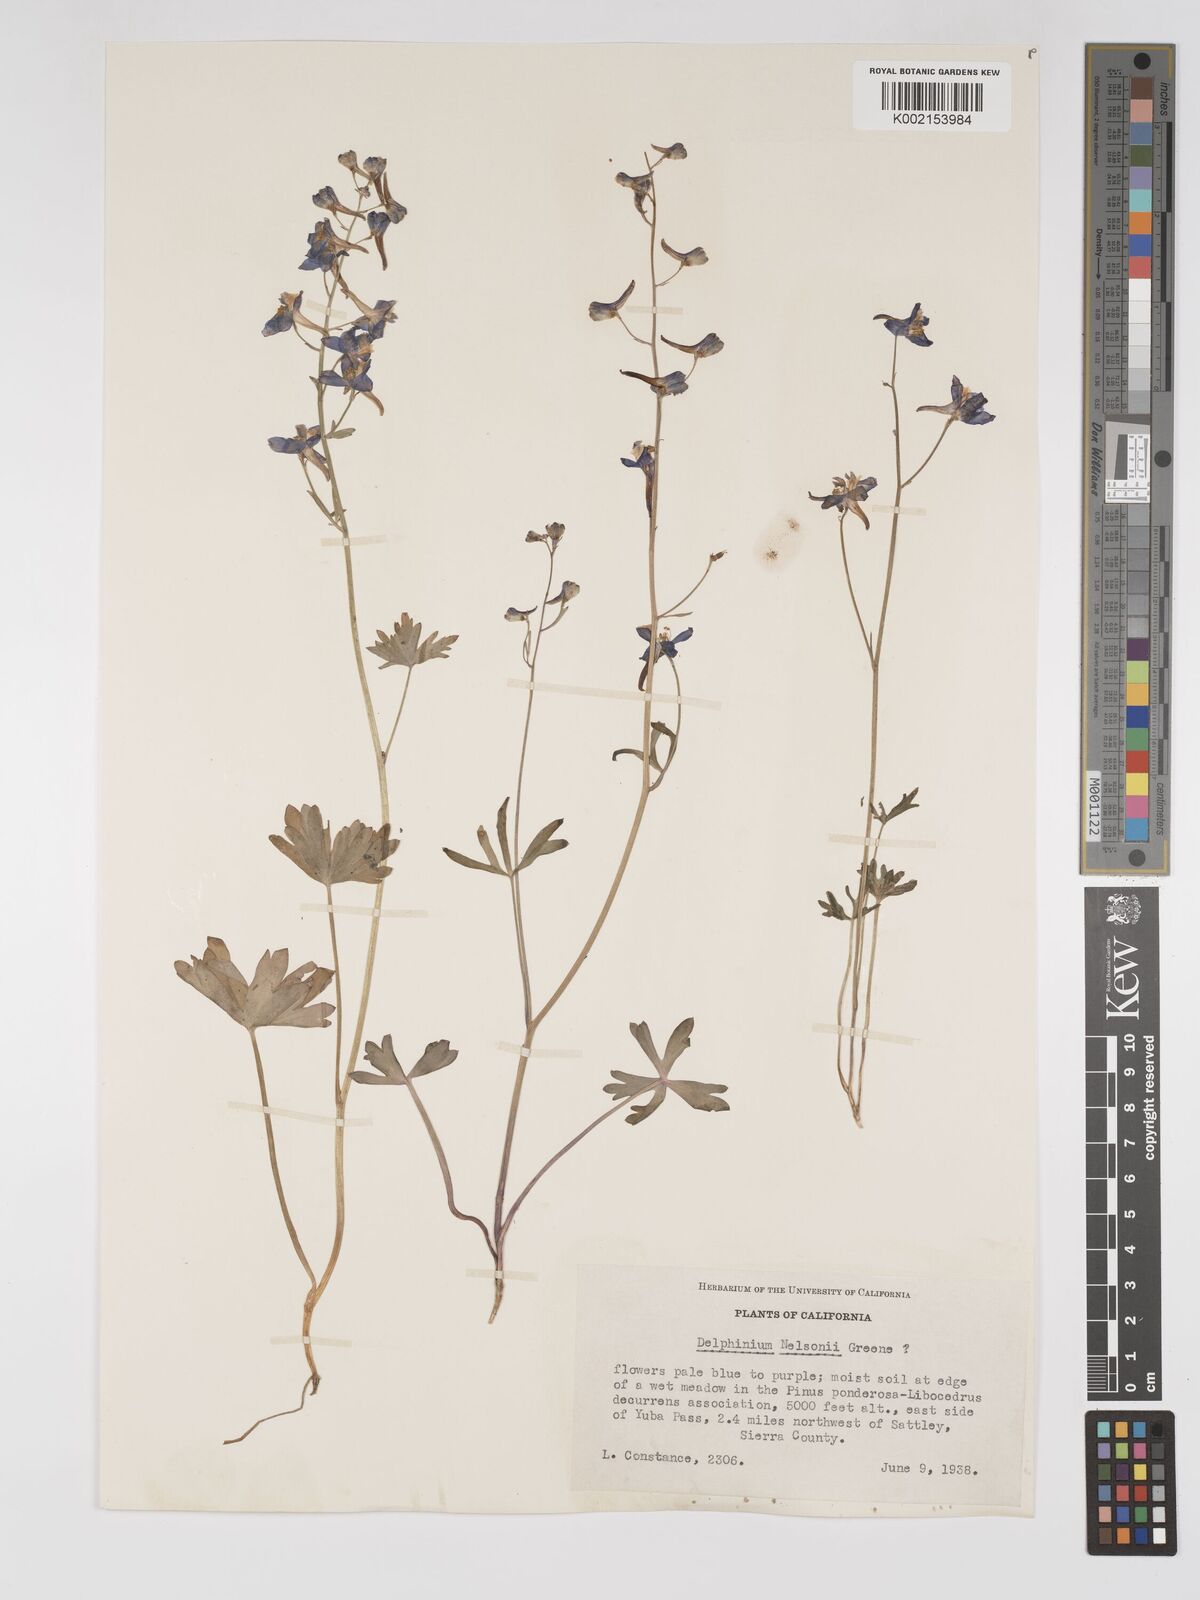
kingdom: Plantae
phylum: Tracheophyta
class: Magnoliopsida
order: Ranunculales
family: Ranunculaceae
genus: Delphinium
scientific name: Delphinium nuttallianum
